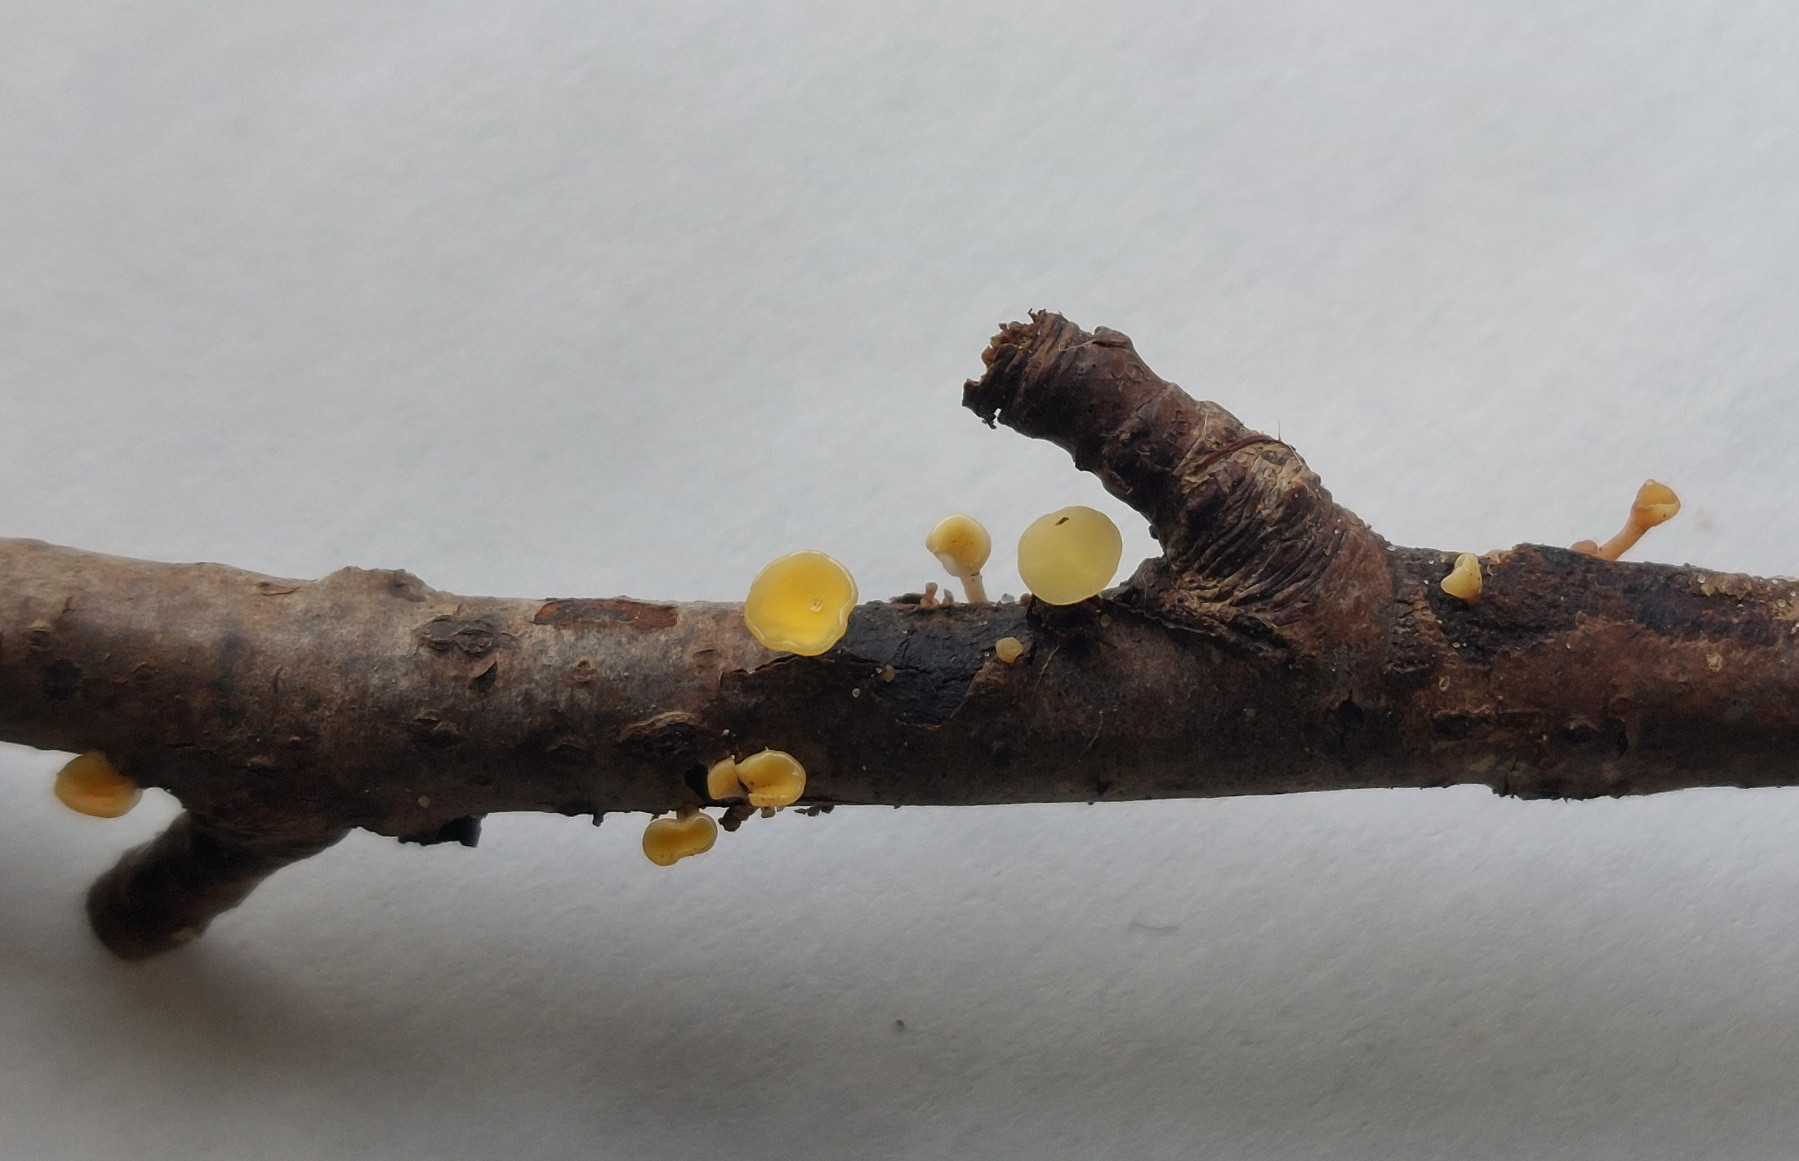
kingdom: Fungi
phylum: Ascomycota
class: Leotiomycetes
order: Helotiales
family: Helotiaceae
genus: Hymenoscyphus
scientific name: Hymenoscyphus serotinus
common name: krumsporet stilkskive
